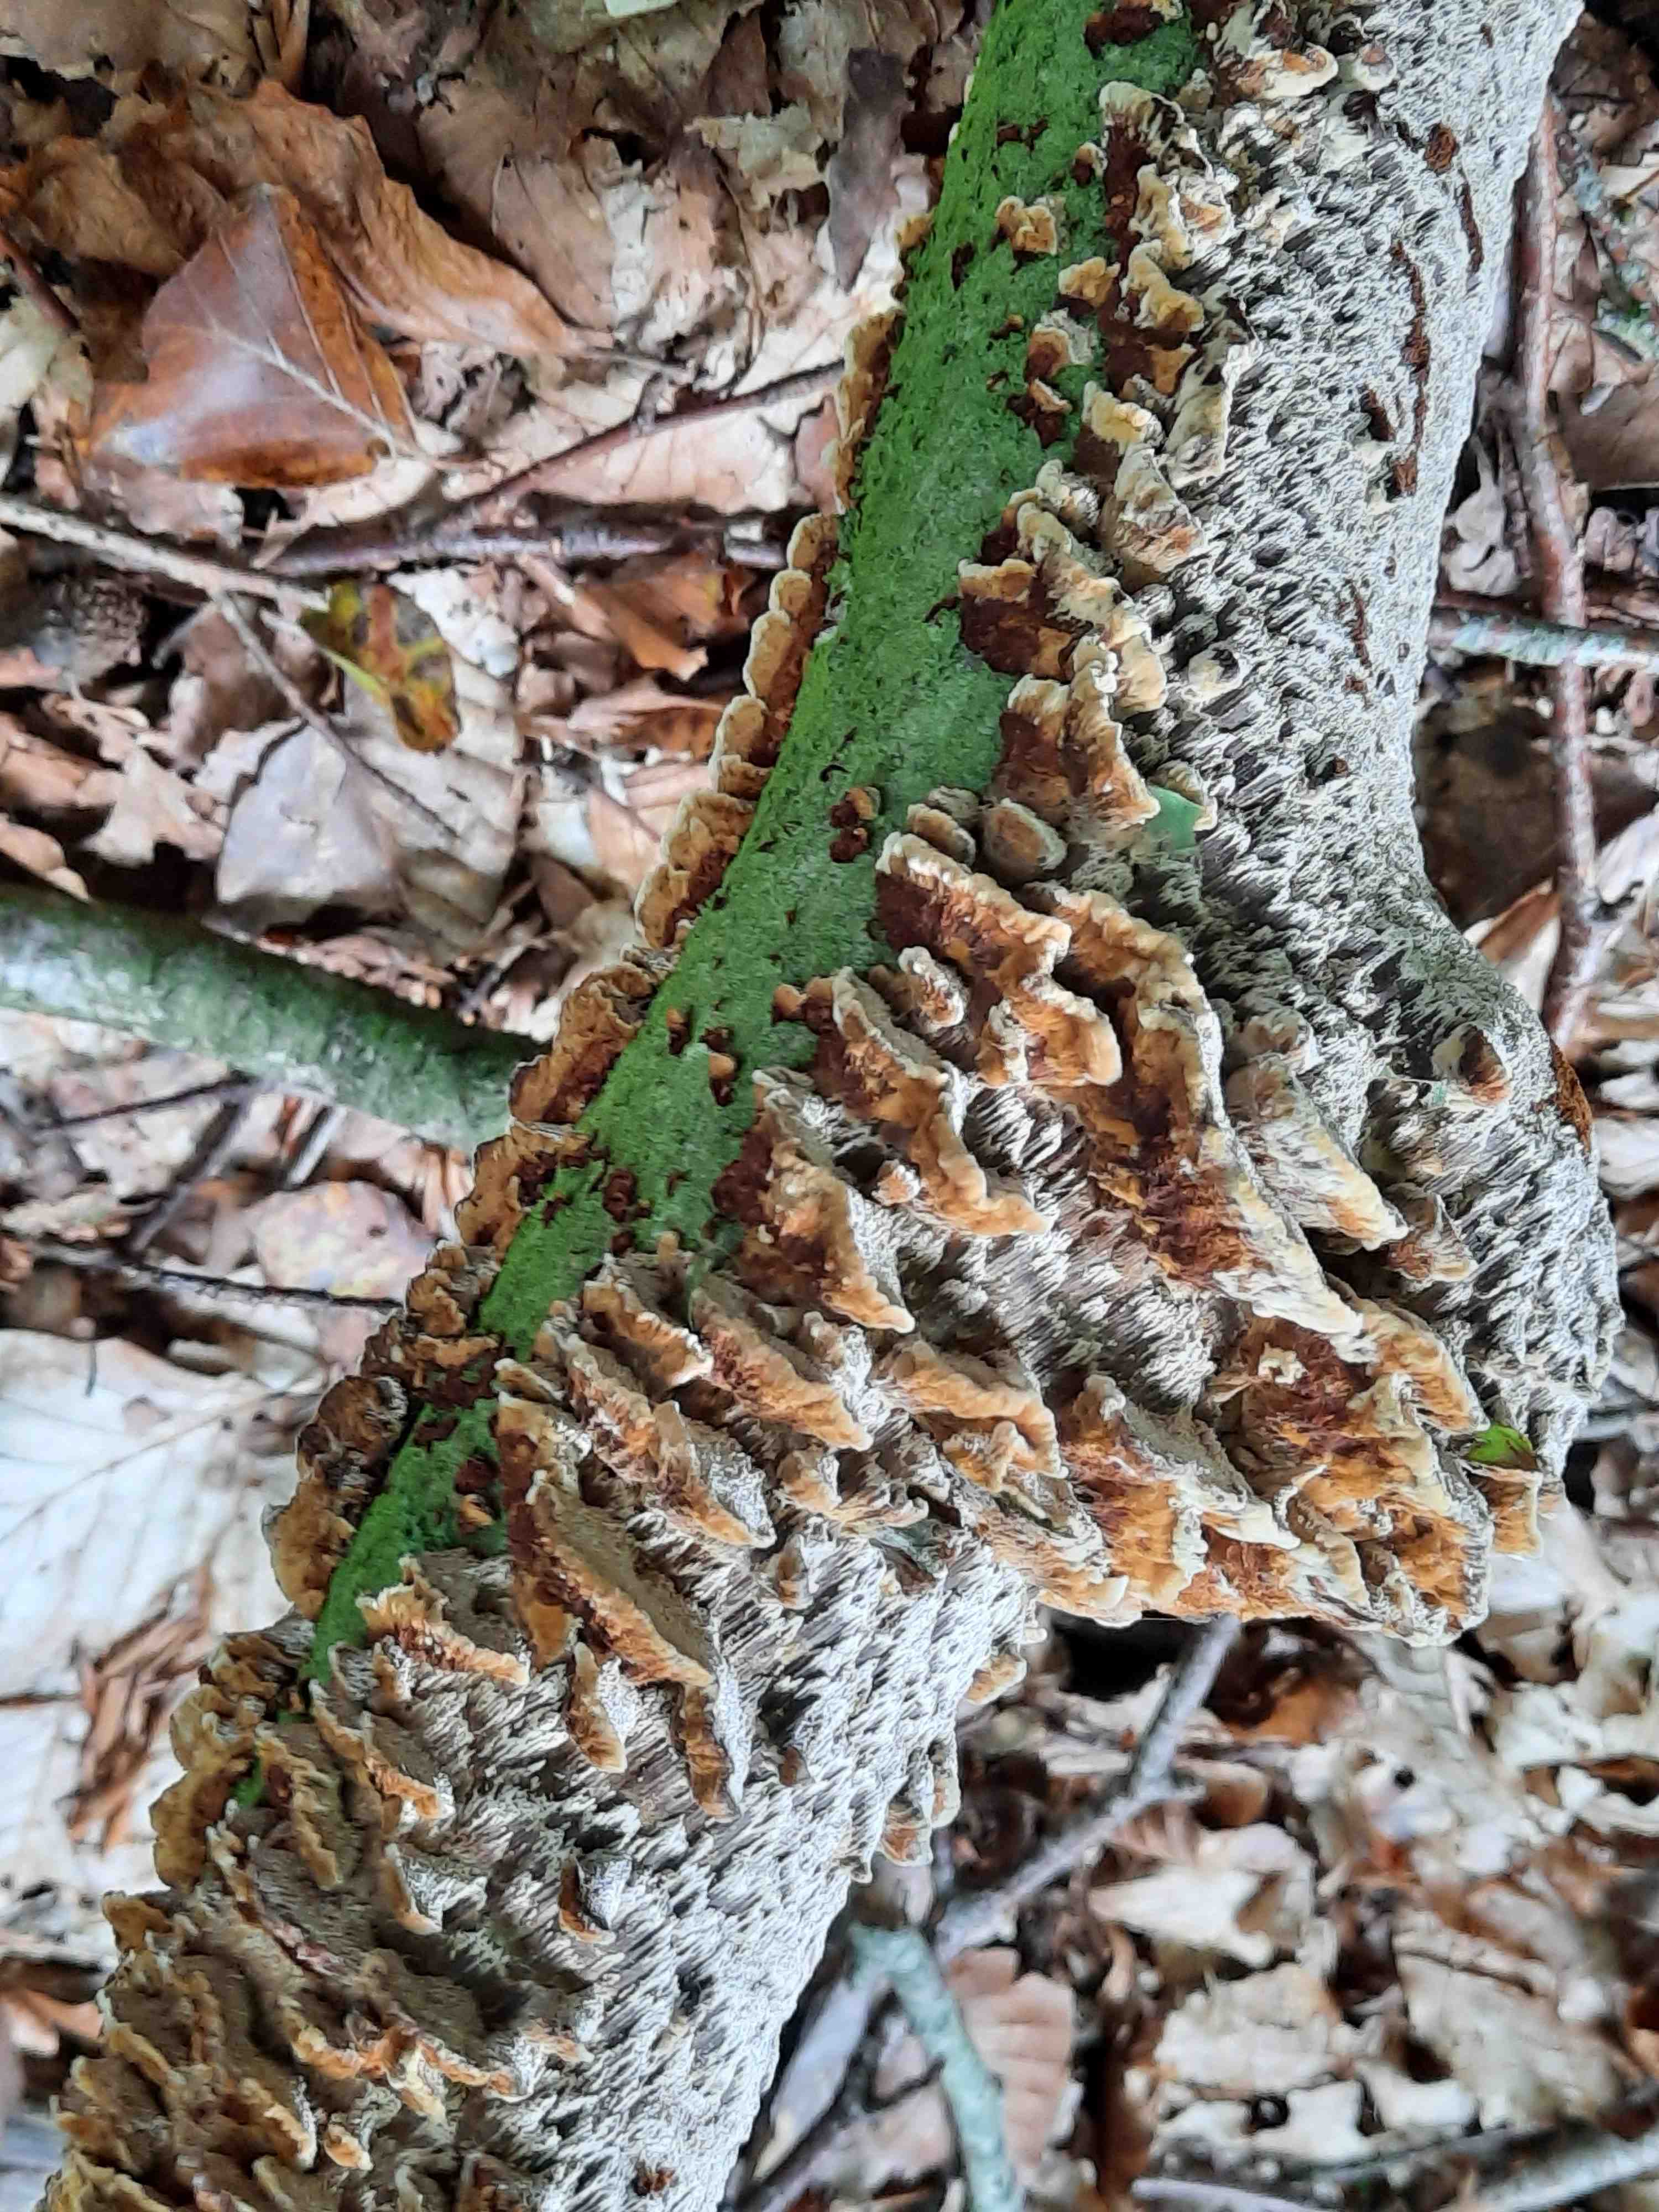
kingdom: Fungi
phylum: Basidiomycota
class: Agaricomycetes
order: Hymenochaetales
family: Hymenochaetaceae
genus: Mensularia
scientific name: Mensularia nodulosa
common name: bøge-spejlporesvamp
